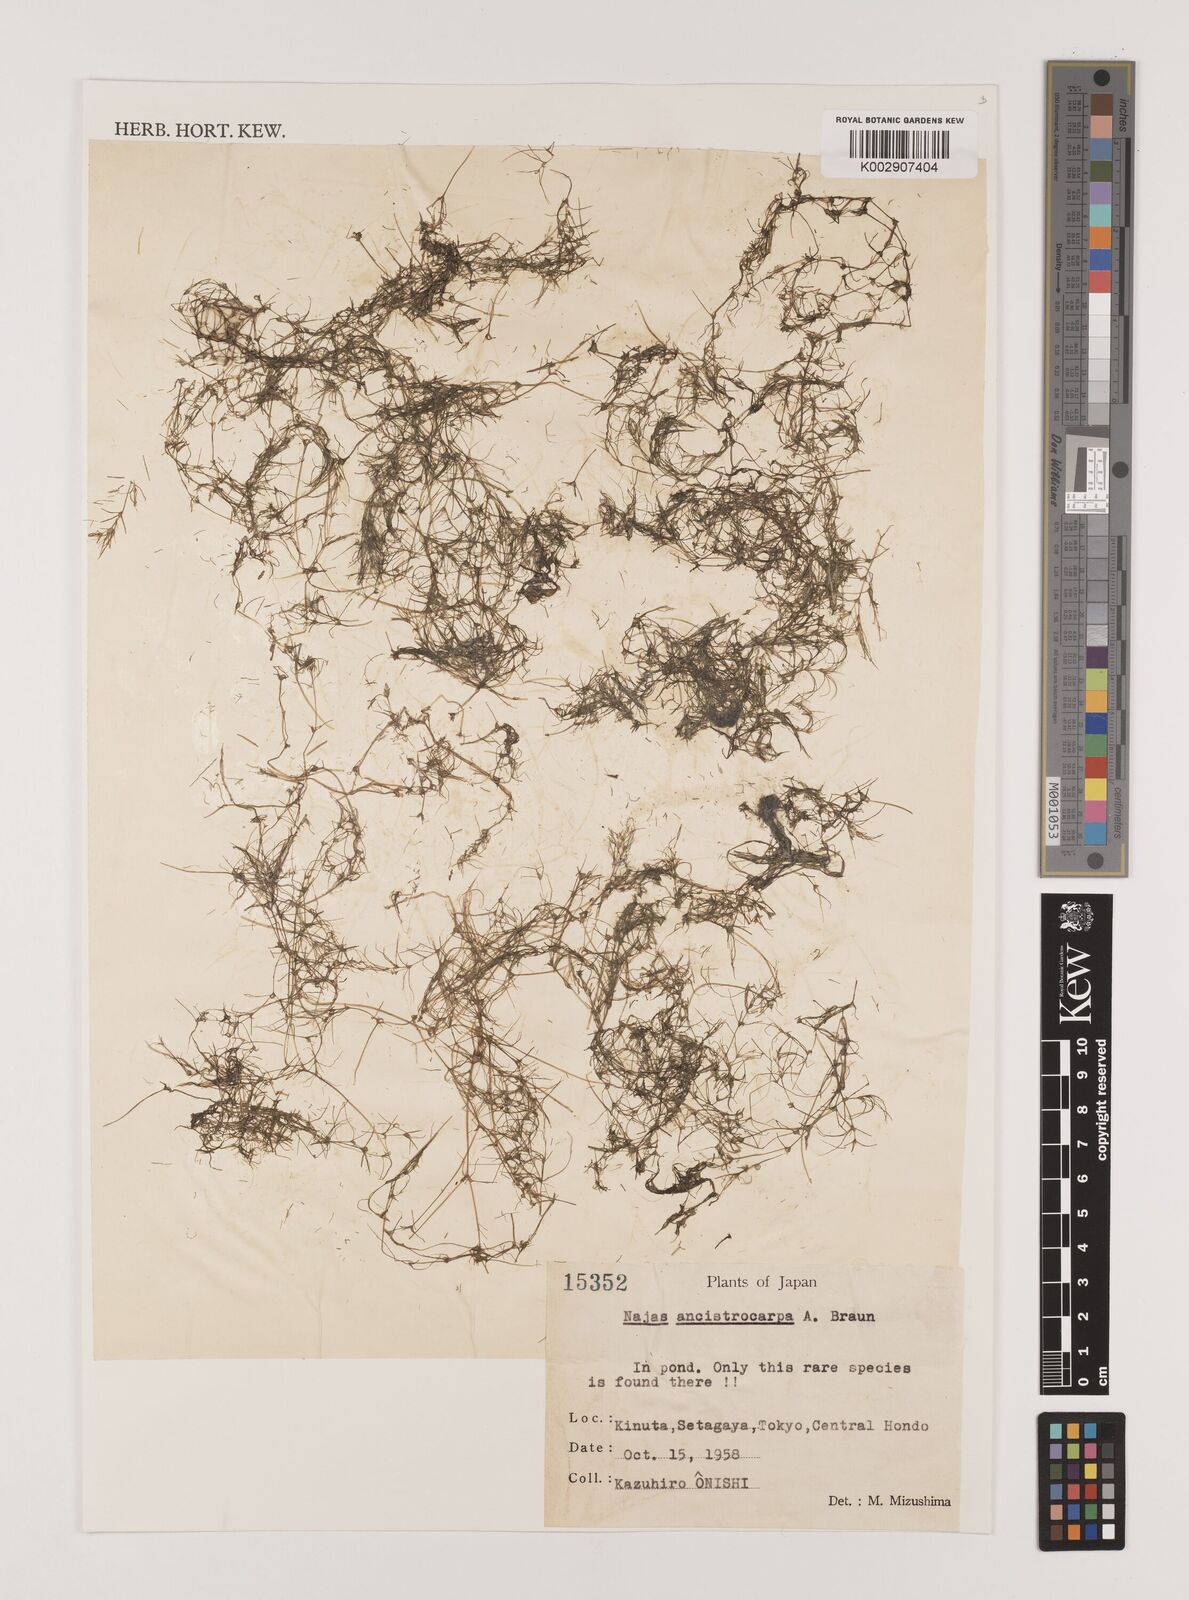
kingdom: Plantae
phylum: Tracheophyta
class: Liliopsida
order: Alismatales
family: Hydrocharitaceae
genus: Najas
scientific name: Najas graminea
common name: Ricefield waternymph
